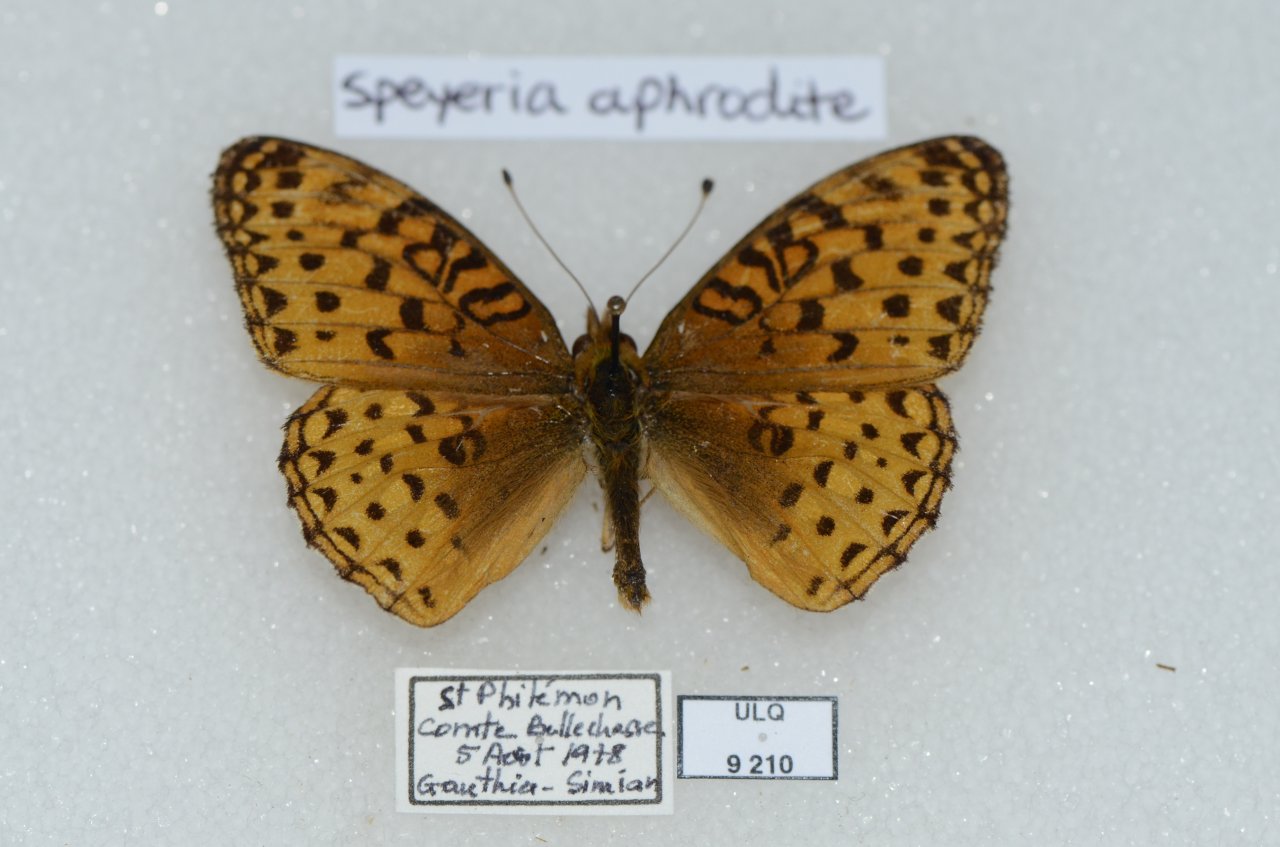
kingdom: Animalia
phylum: Arthropoda
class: Insecta
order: Lepidoptera
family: Nymphalidae
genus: Speyeria
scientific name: Speyeria aphrodite
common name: Aphrodite Fritillary
